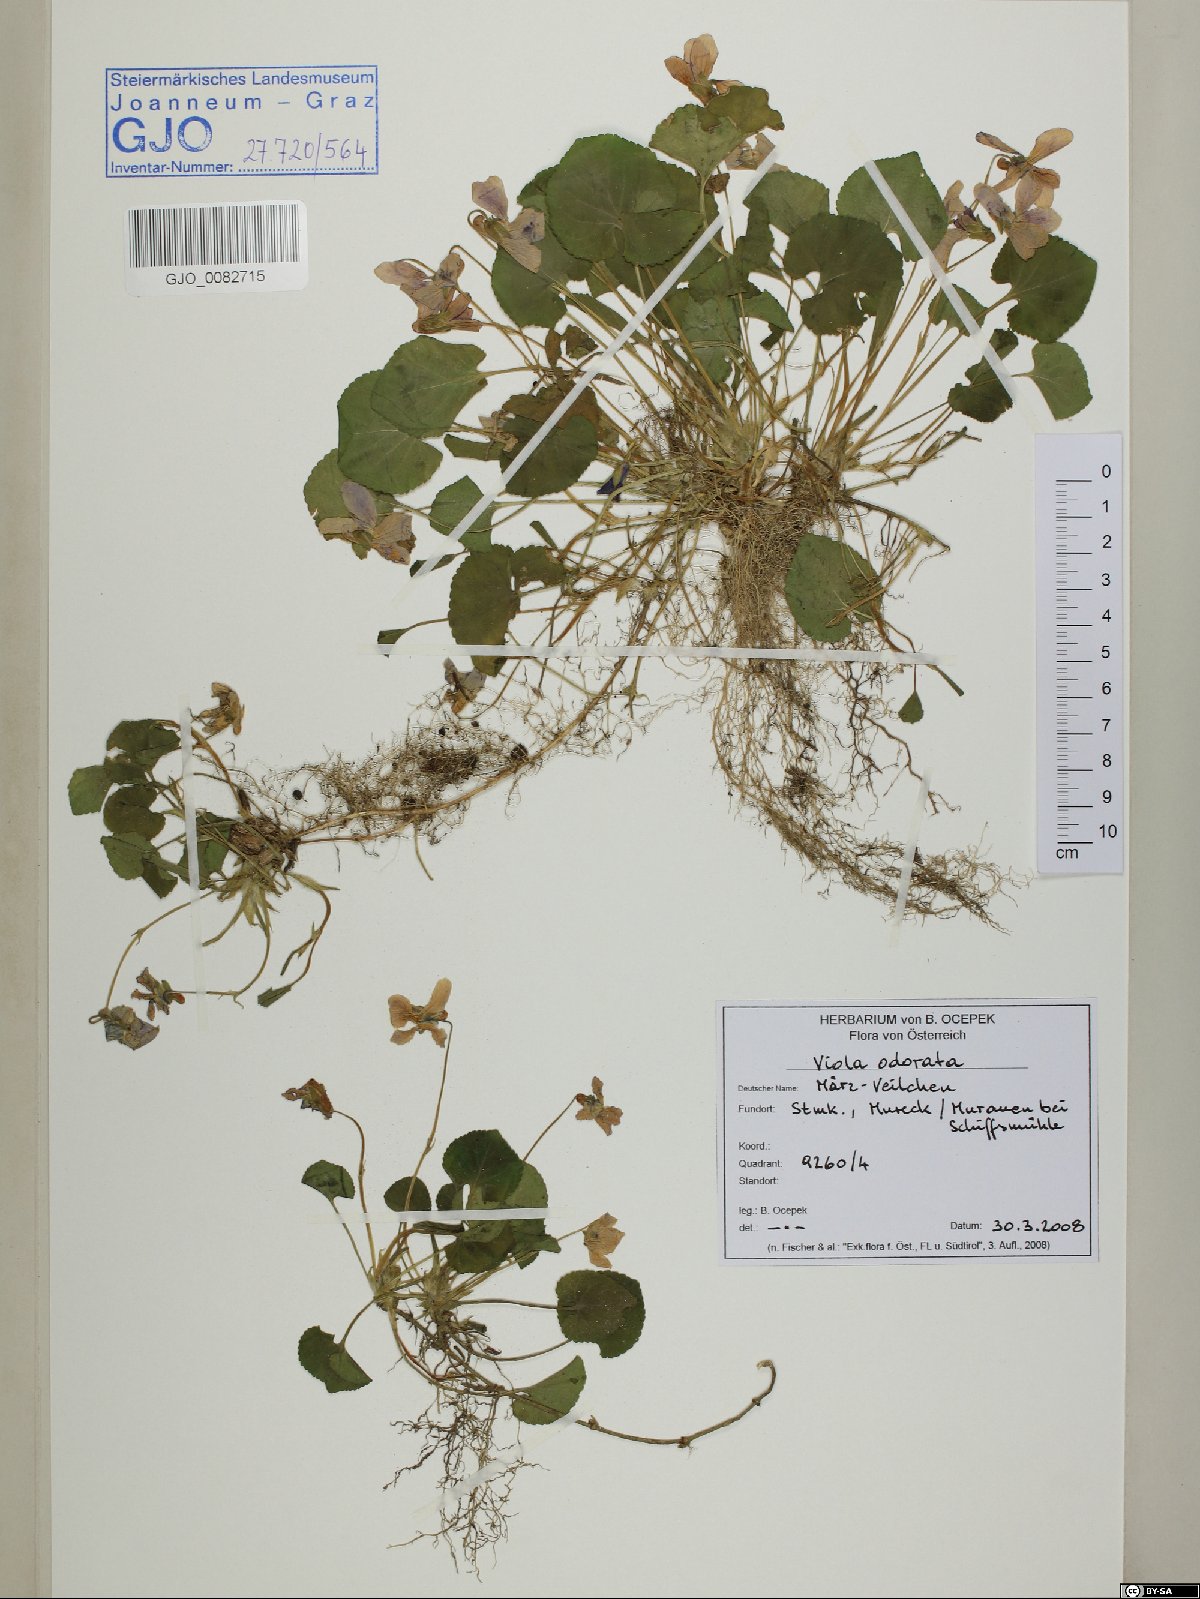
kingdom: Plantae
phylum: Tracheophyta
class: Magnoliopsida
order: Malpighiales
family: Violaceae
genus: Viola
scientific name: Viola odorata
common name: Sweet violet
